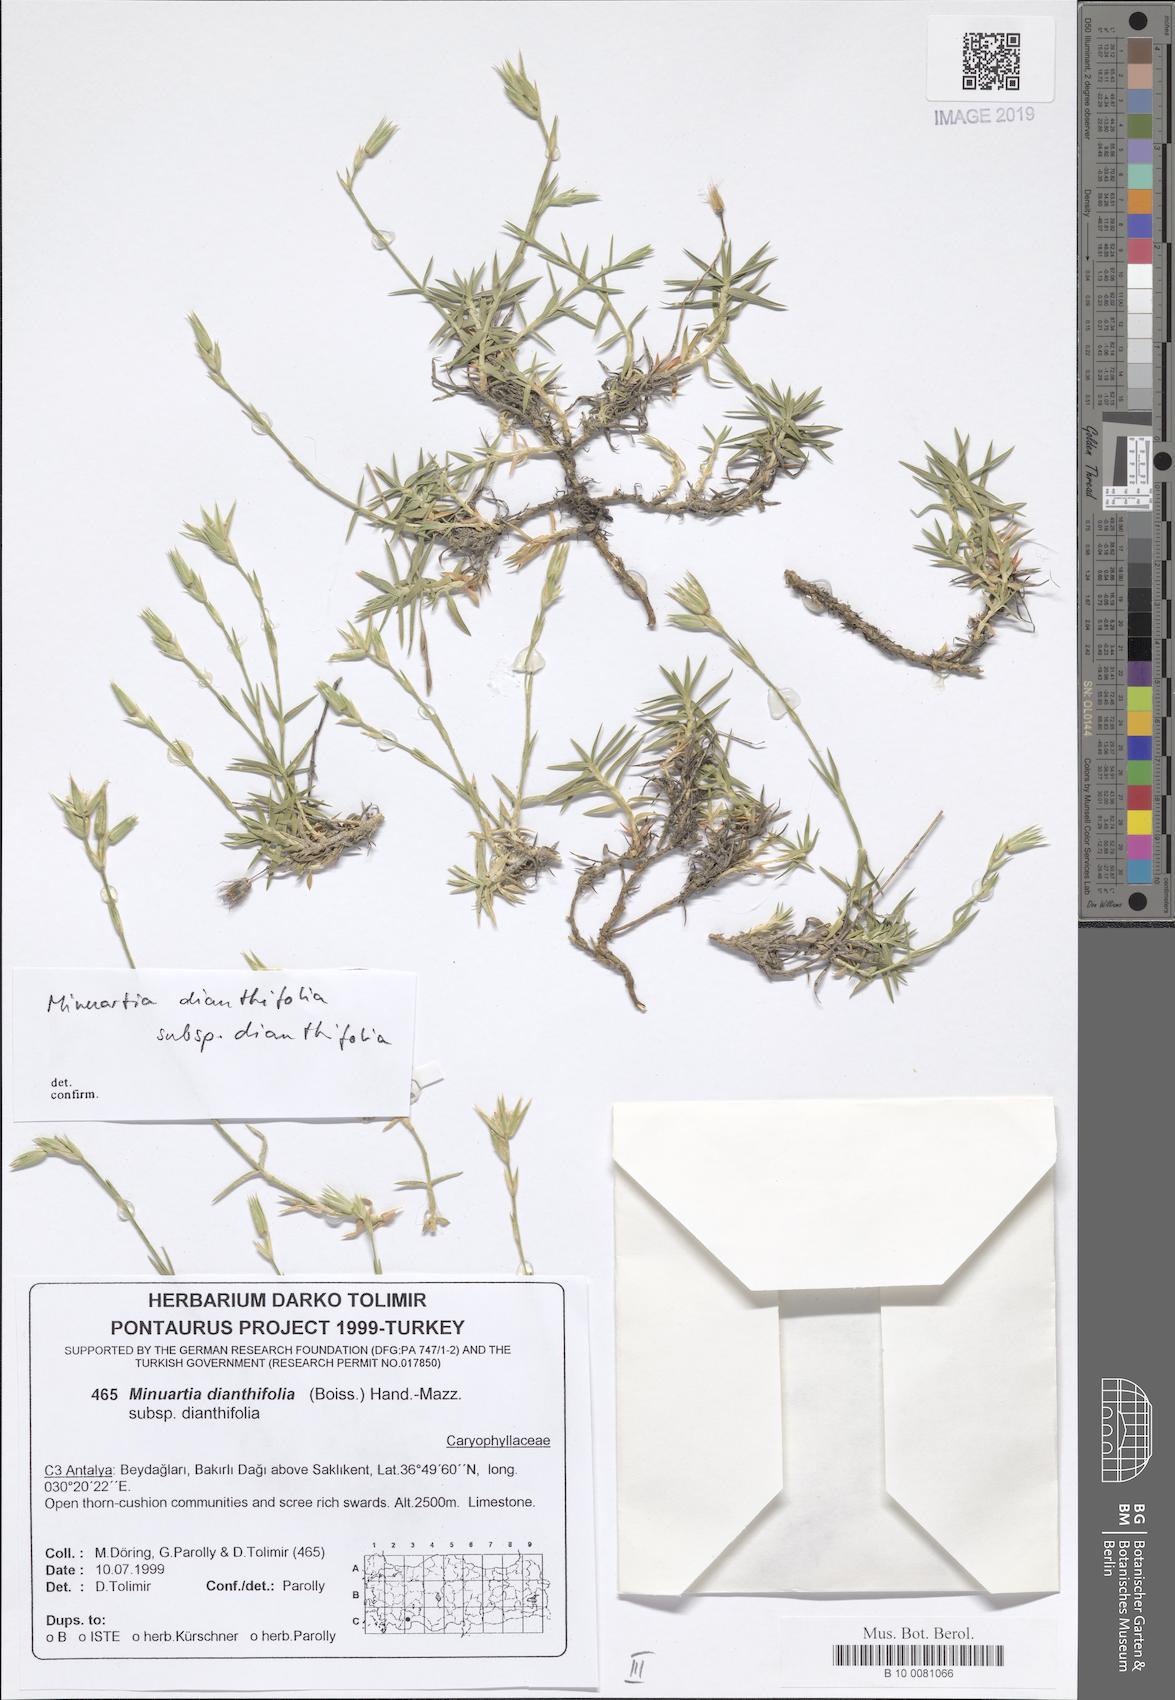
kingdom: Plantae
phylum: Tracheophyta
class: Magnoliopsida
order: Caryophyllales
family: Caryophyllaceae
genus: Minuartiella
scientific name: Minuartiella dianthifolia
